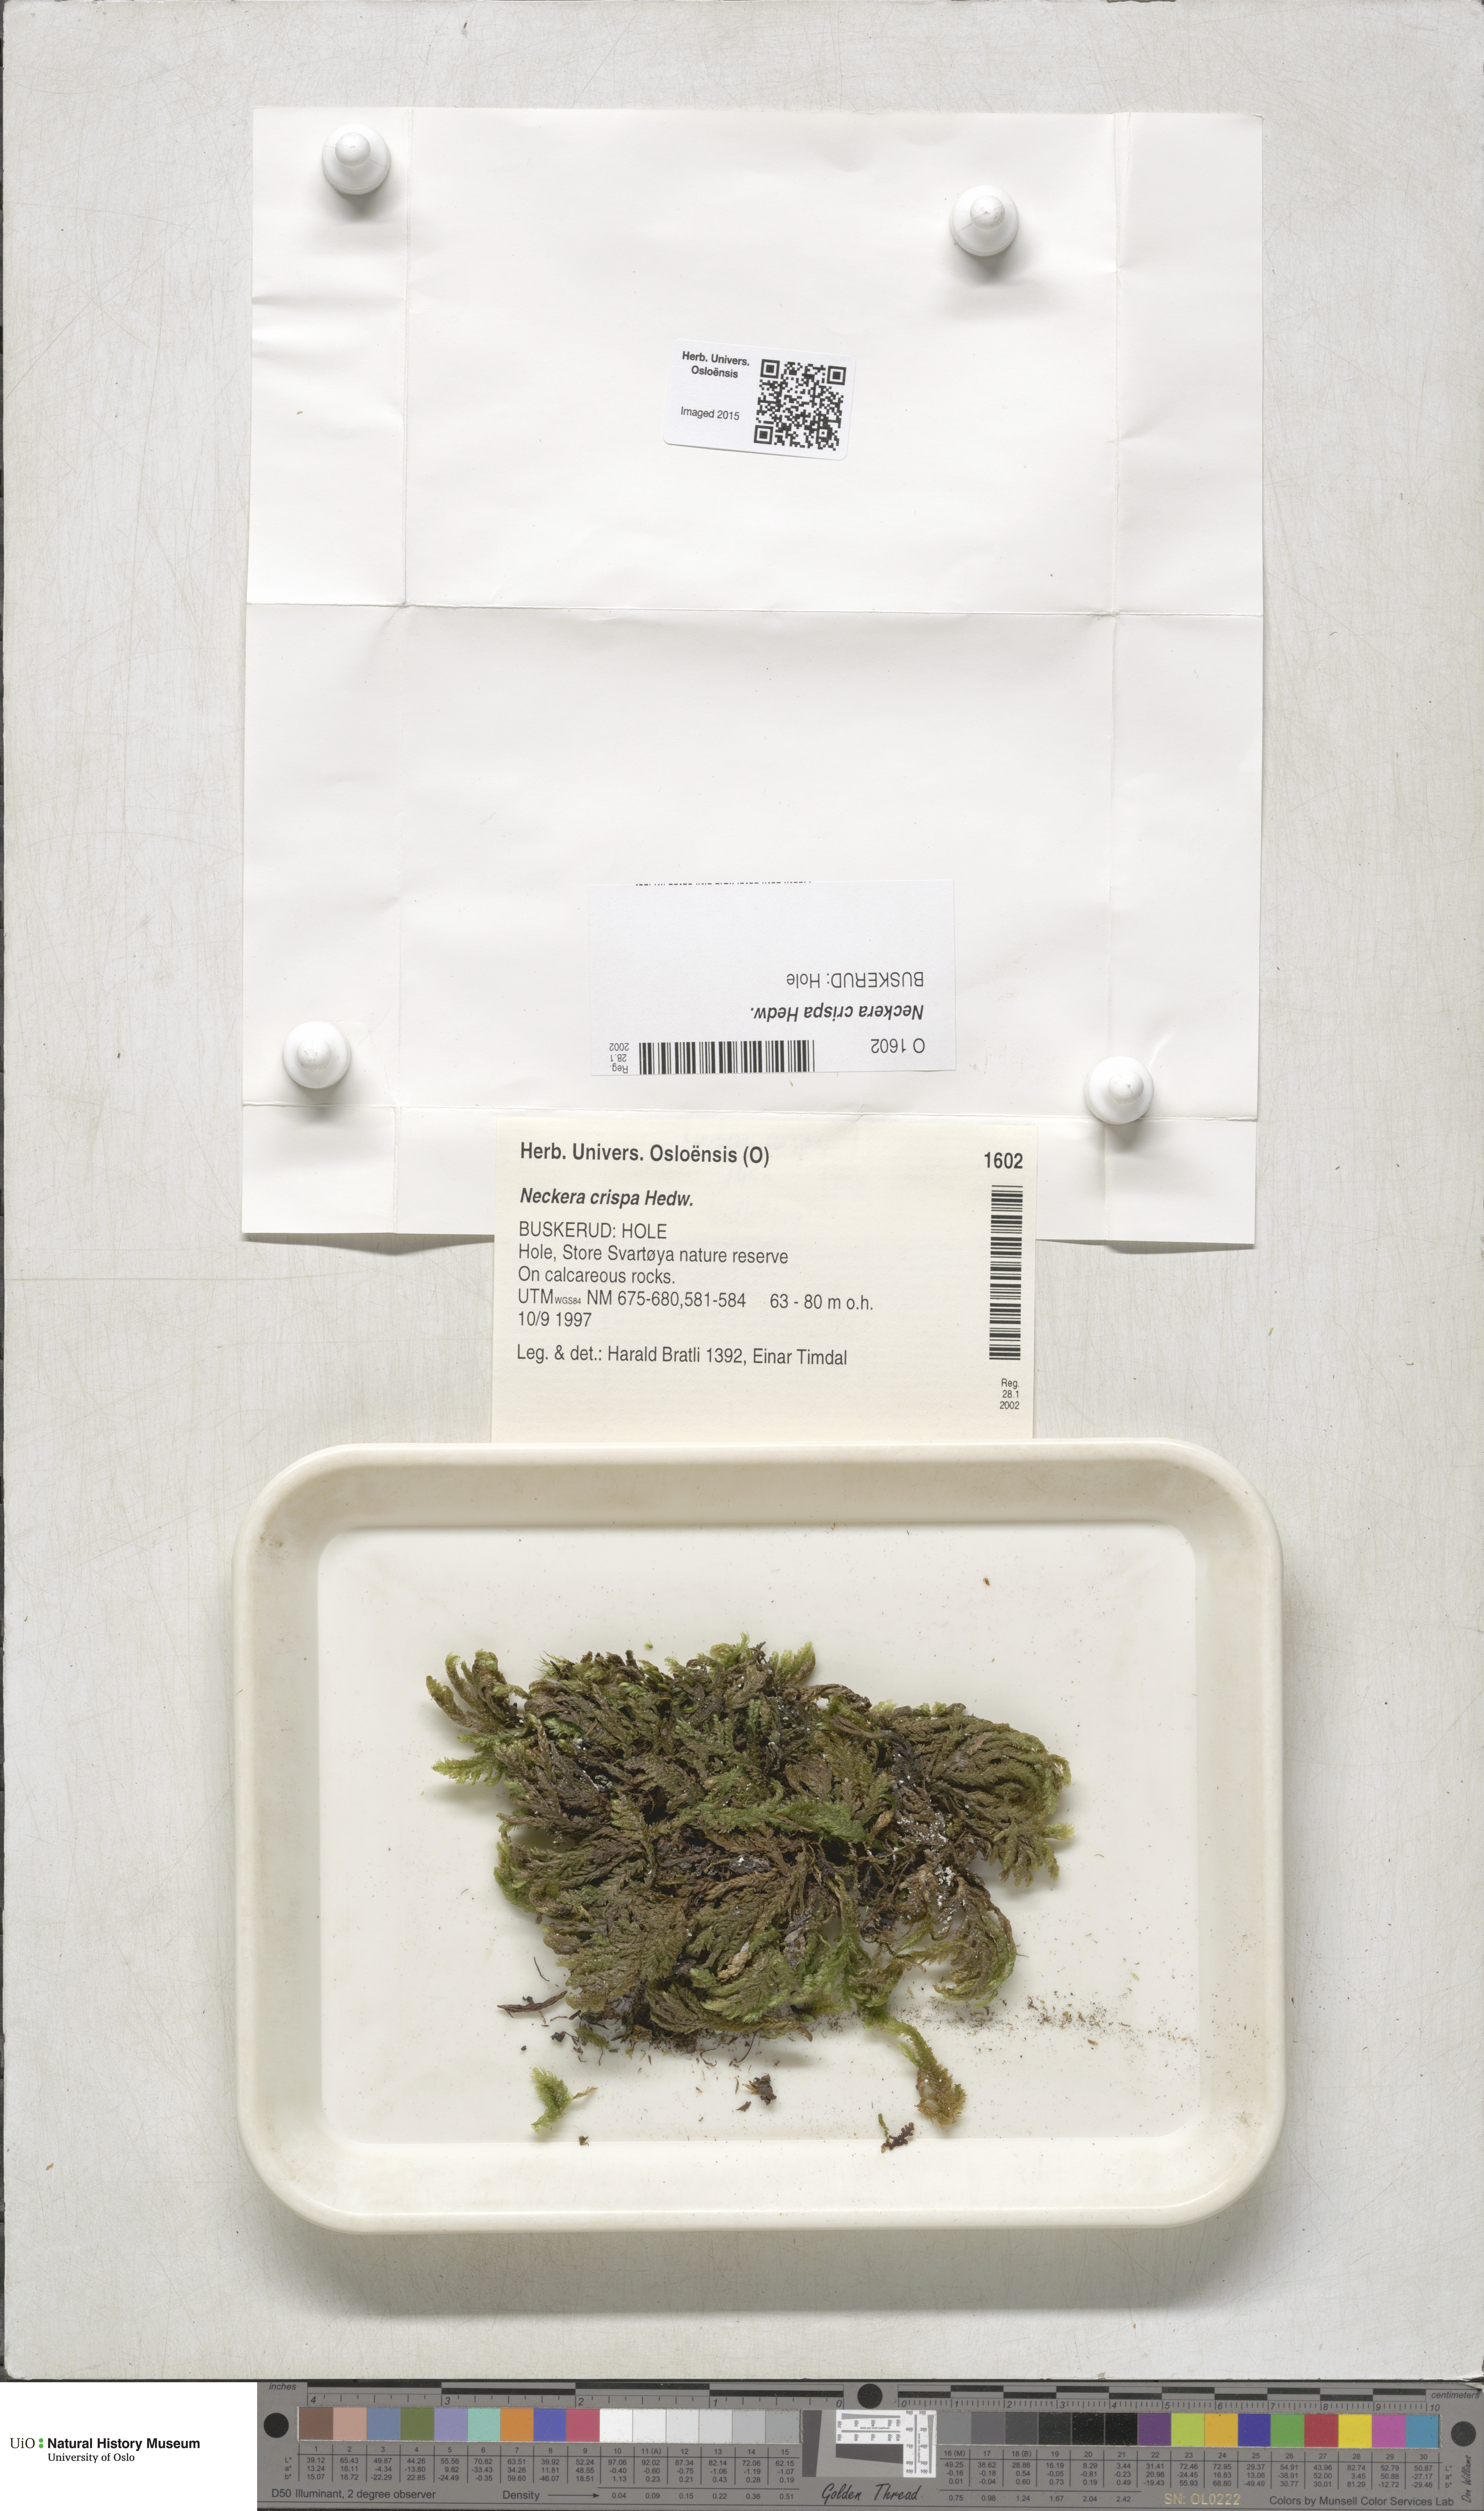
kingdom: Plantae
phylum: Bryophyta
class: Bryopsida
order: Hypnales
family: Neckeraceae
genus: Exsertotheca
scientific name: Exsertotheca crispa
